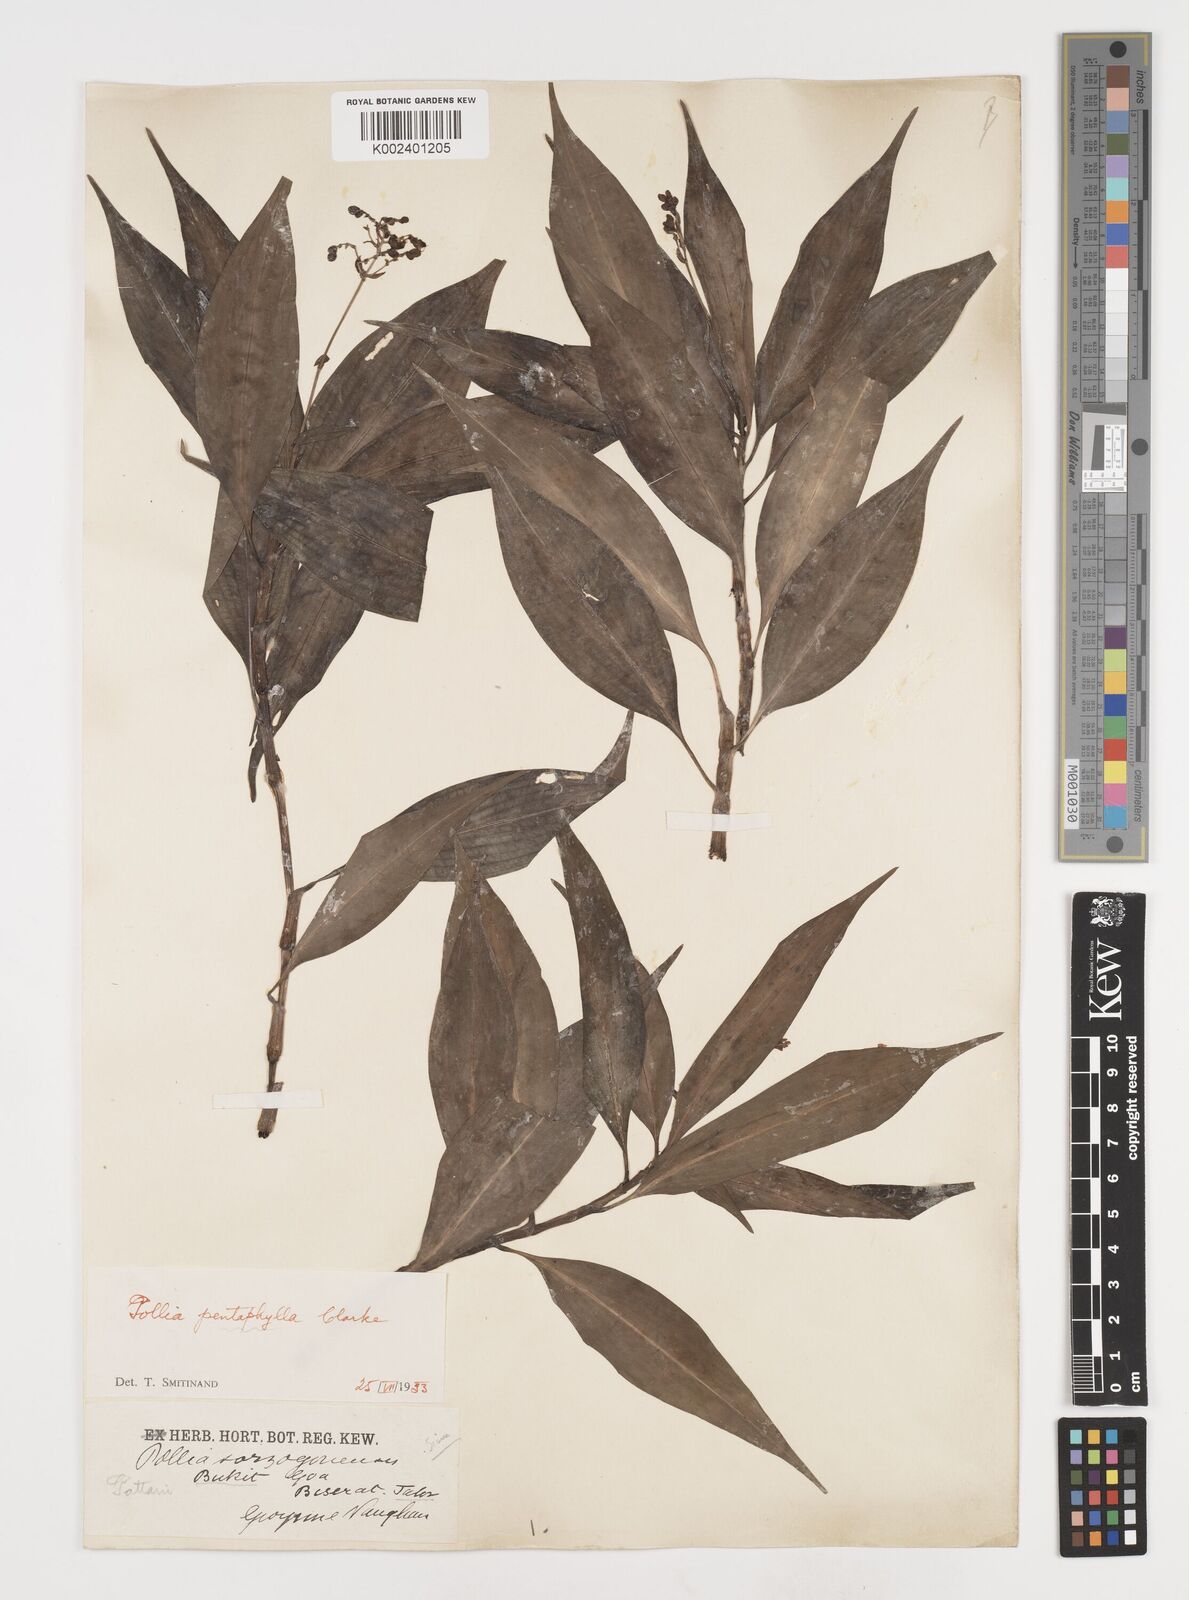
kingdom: Plantae
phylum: Tracheophyta
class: Liliopsida
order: Commelinales
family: Commelinaceae
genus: Pollia
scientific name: Pollia secundiflora
